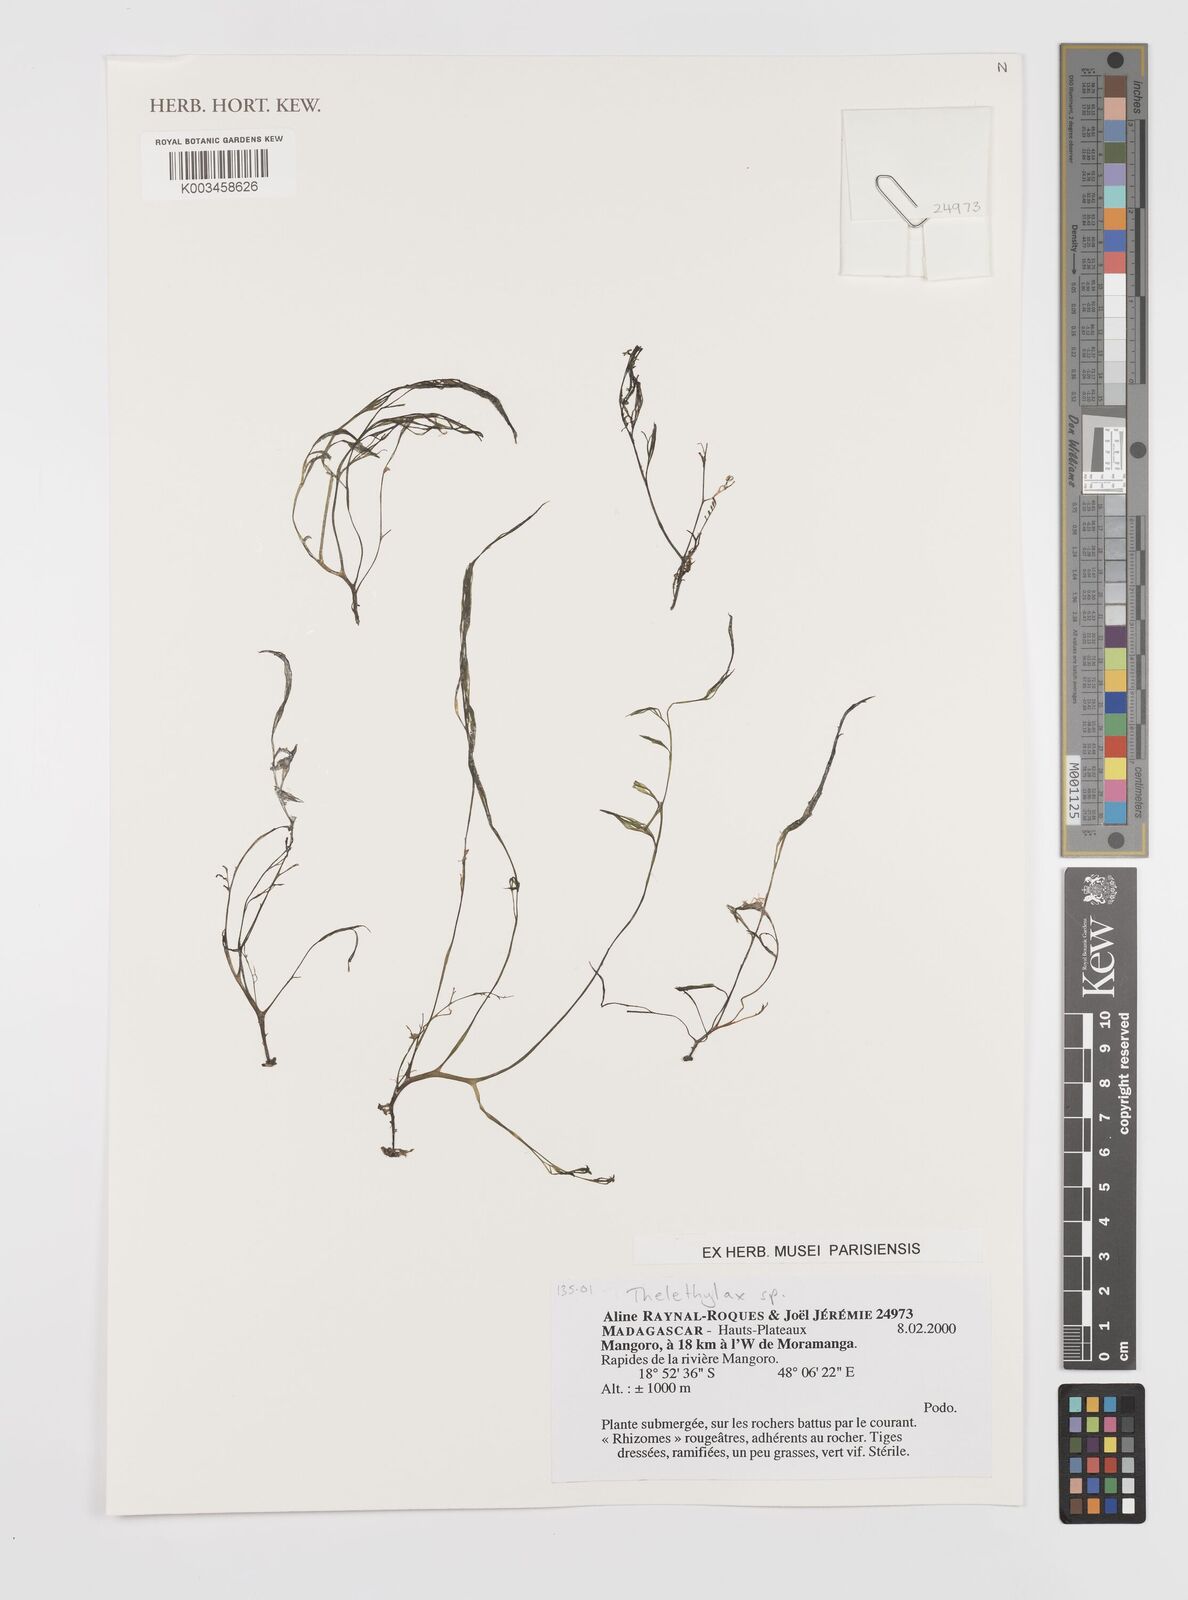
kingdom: Plantae
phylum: Tracheophyta
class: Magnoliopsida
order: Malpighiales
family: Podostemaceae
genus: Thelethylax
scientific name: Thelethylax
